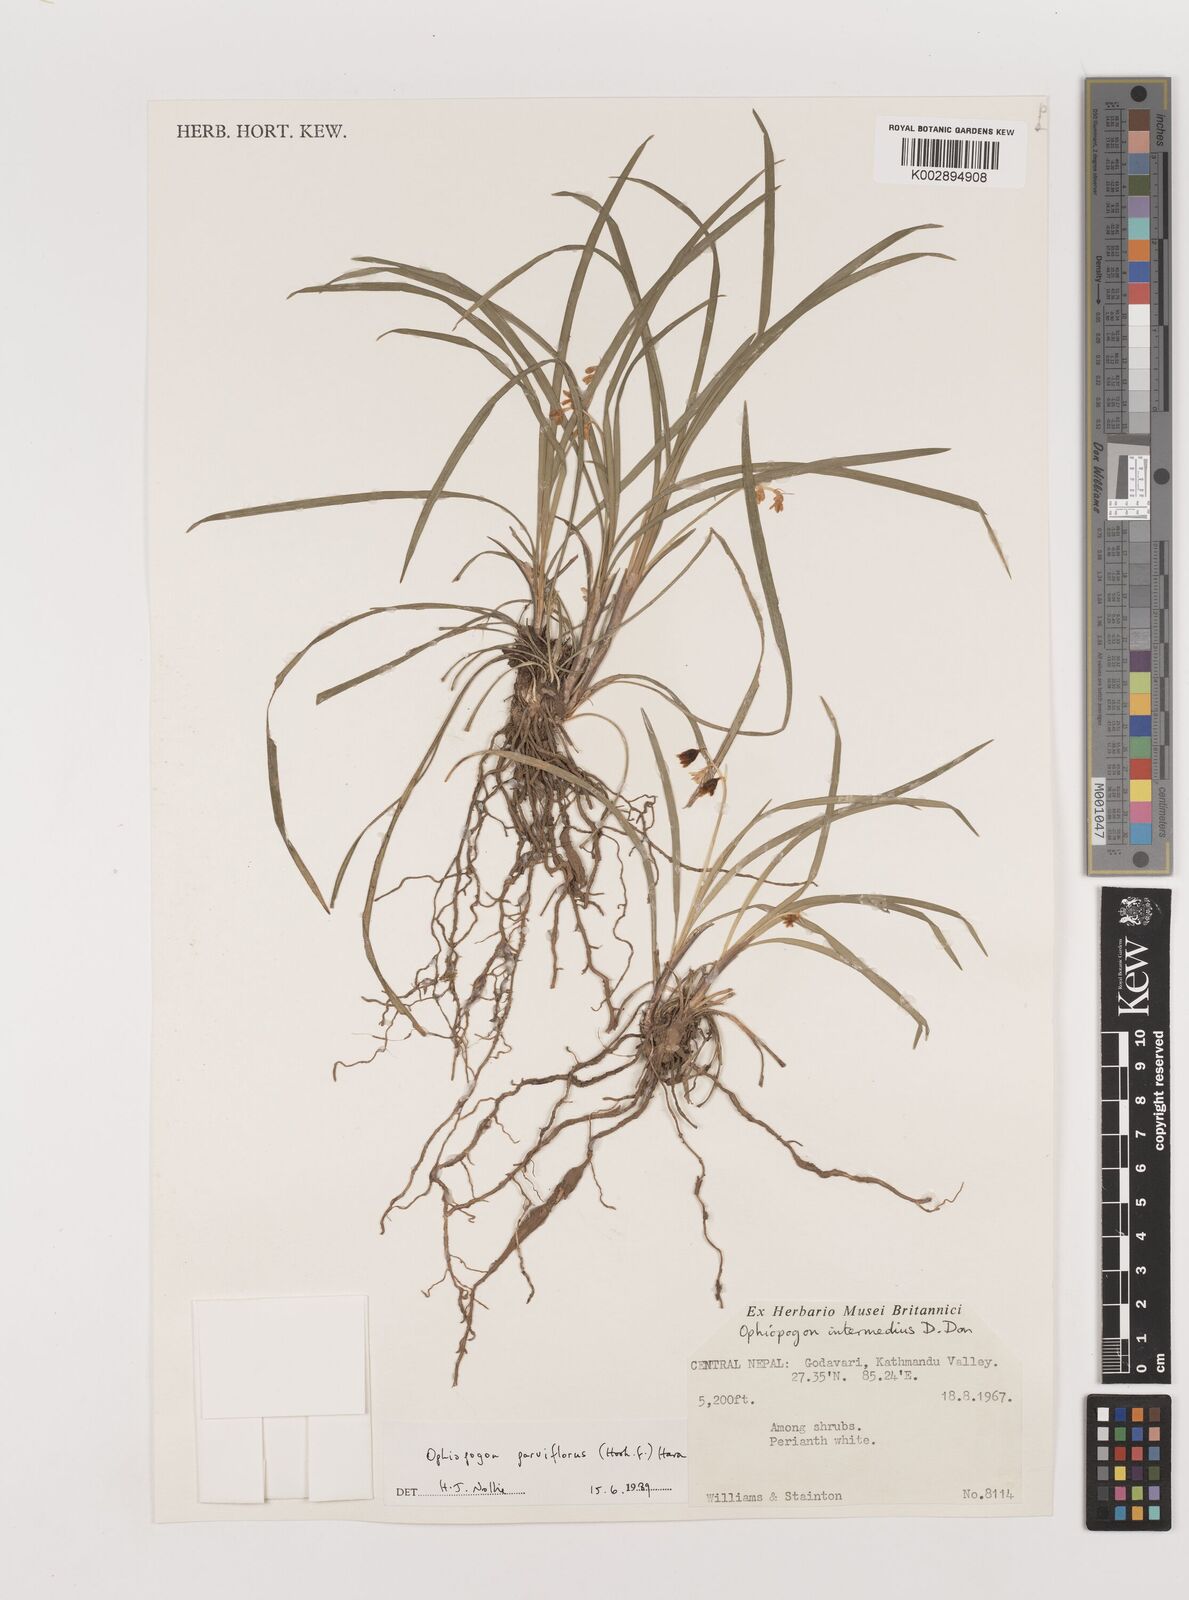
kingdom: Plantae
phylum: Tracheophyta
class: Liliopsida
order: Asparagales
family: Asparagaceae
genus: Ophiopogon
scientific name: Ophiopogon intermedius
